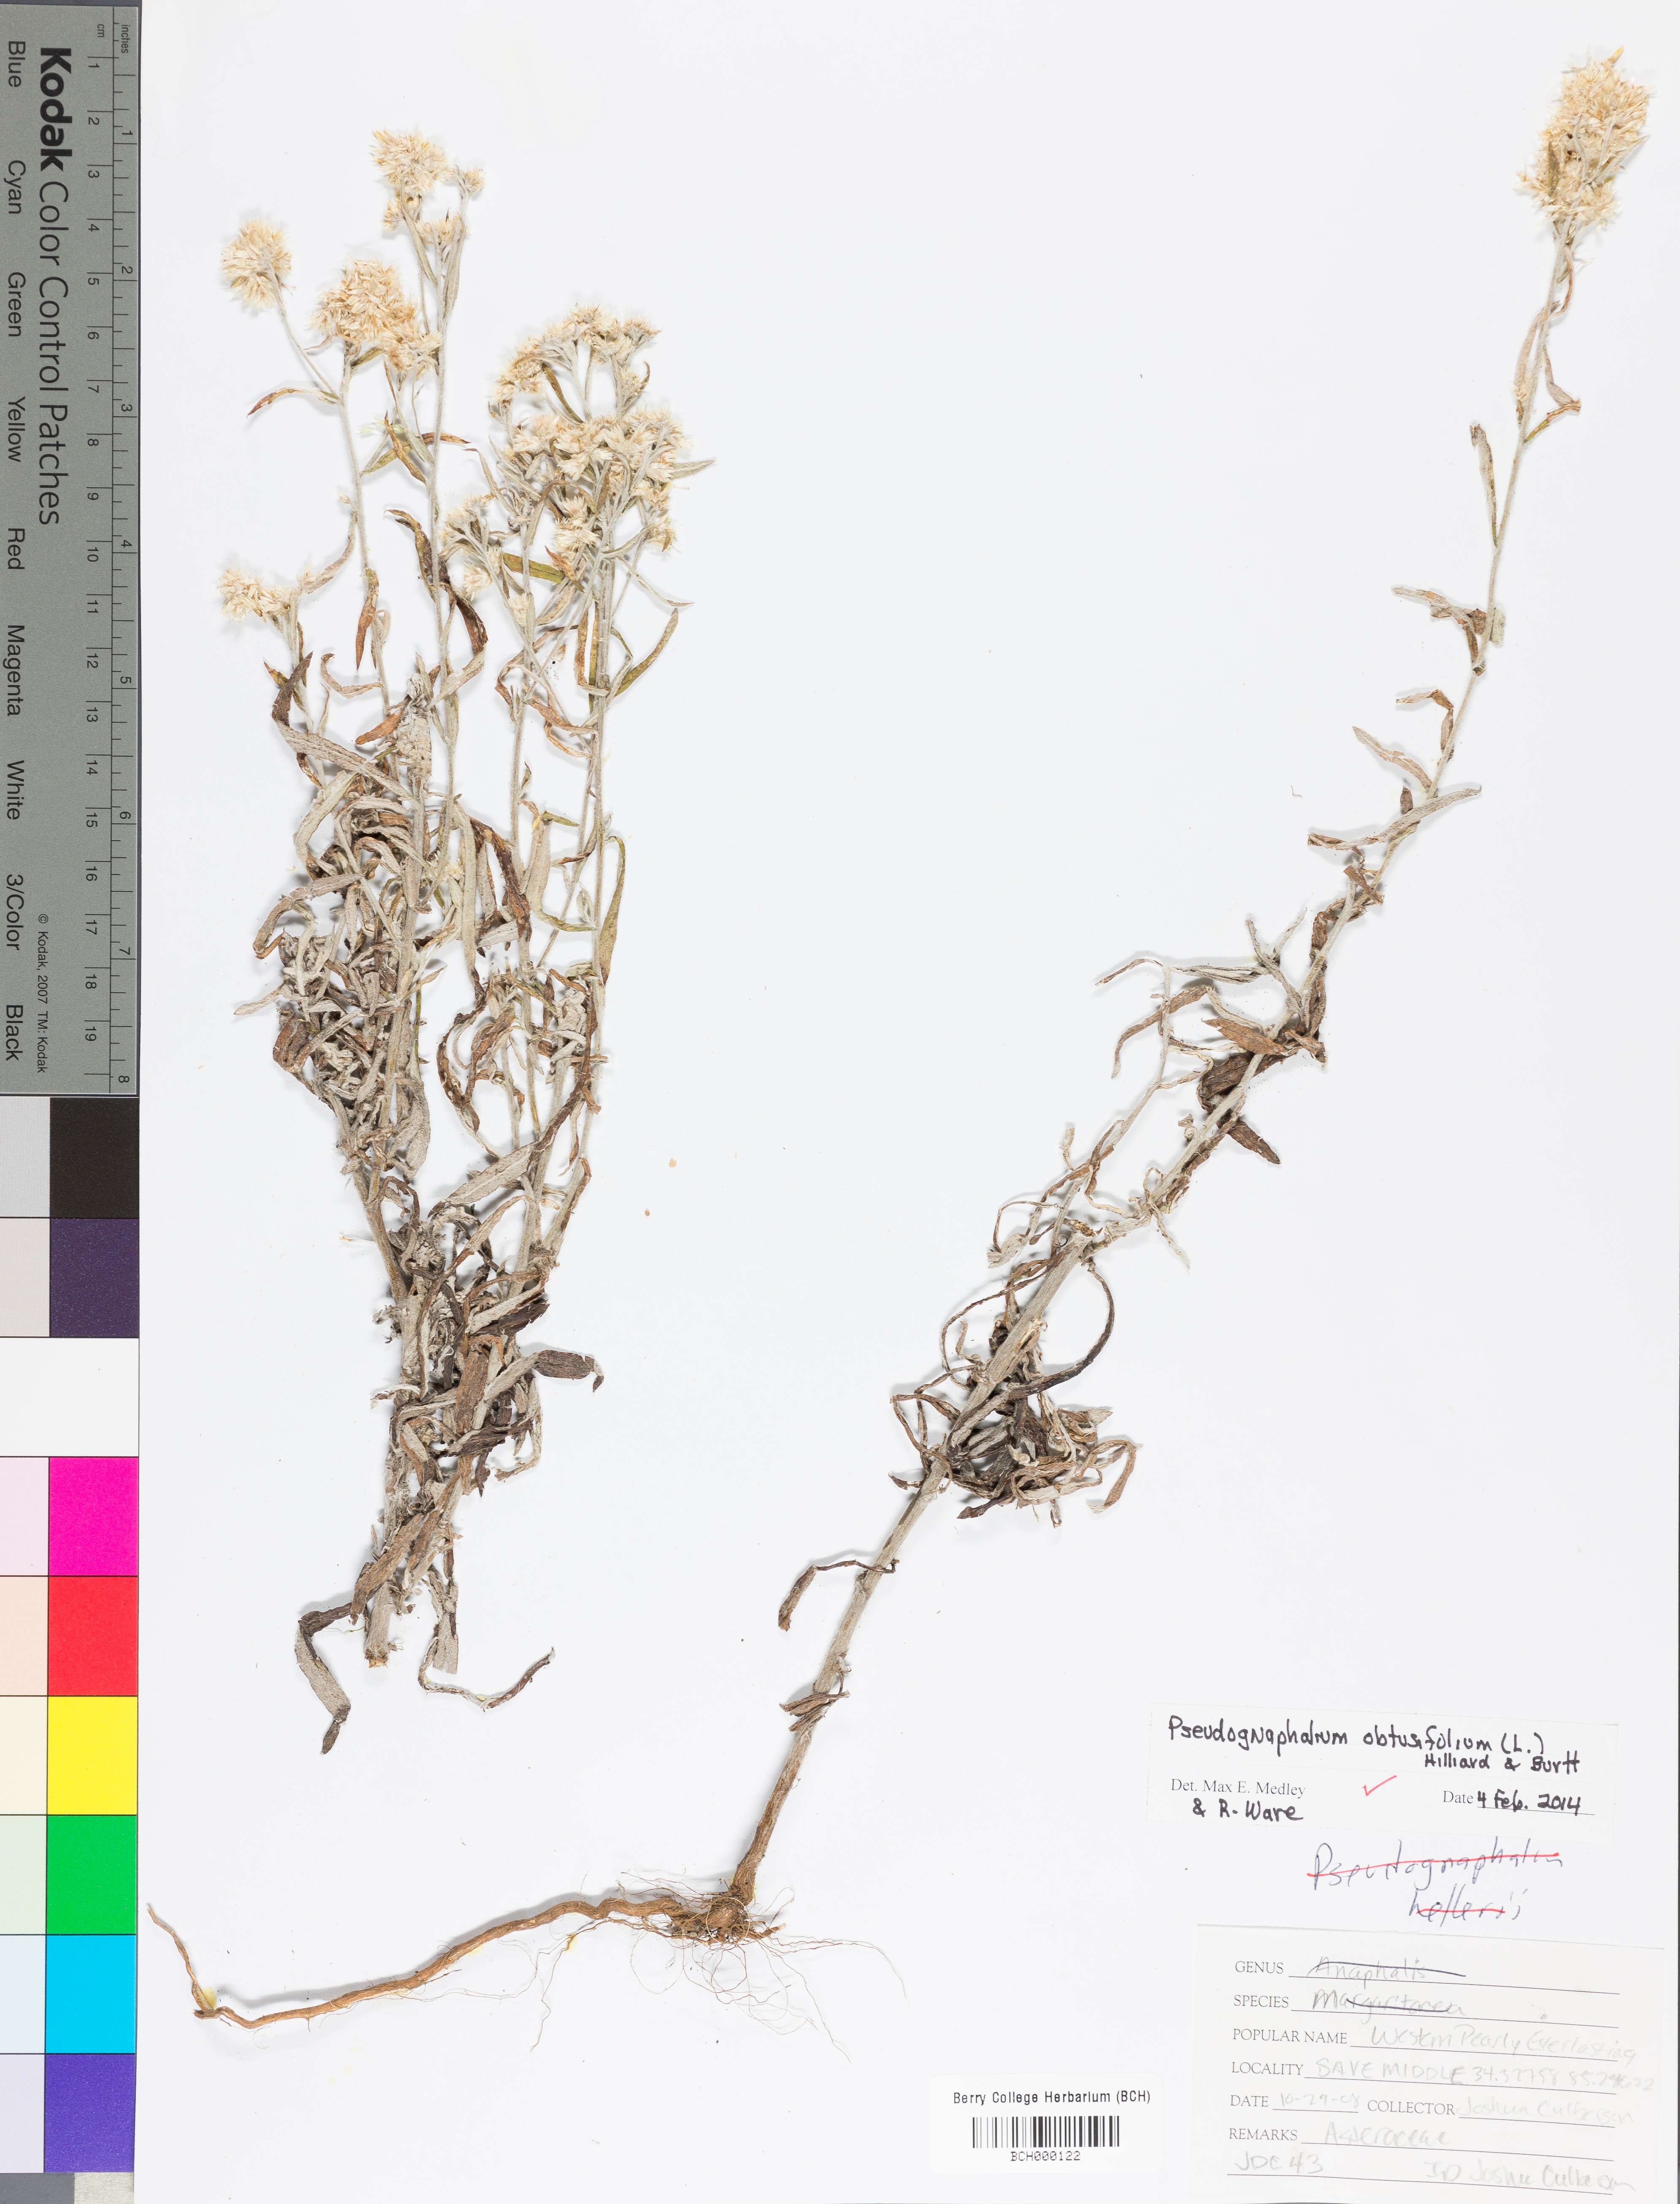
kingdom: Plantae
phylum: Tracheophyta
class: Magnoliopsida
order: Asterales
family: Asteraceae
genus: Pseudognaphalium
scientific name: Pseudognaphalium obtusifolium
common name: Eastern rabbit-tobacco
